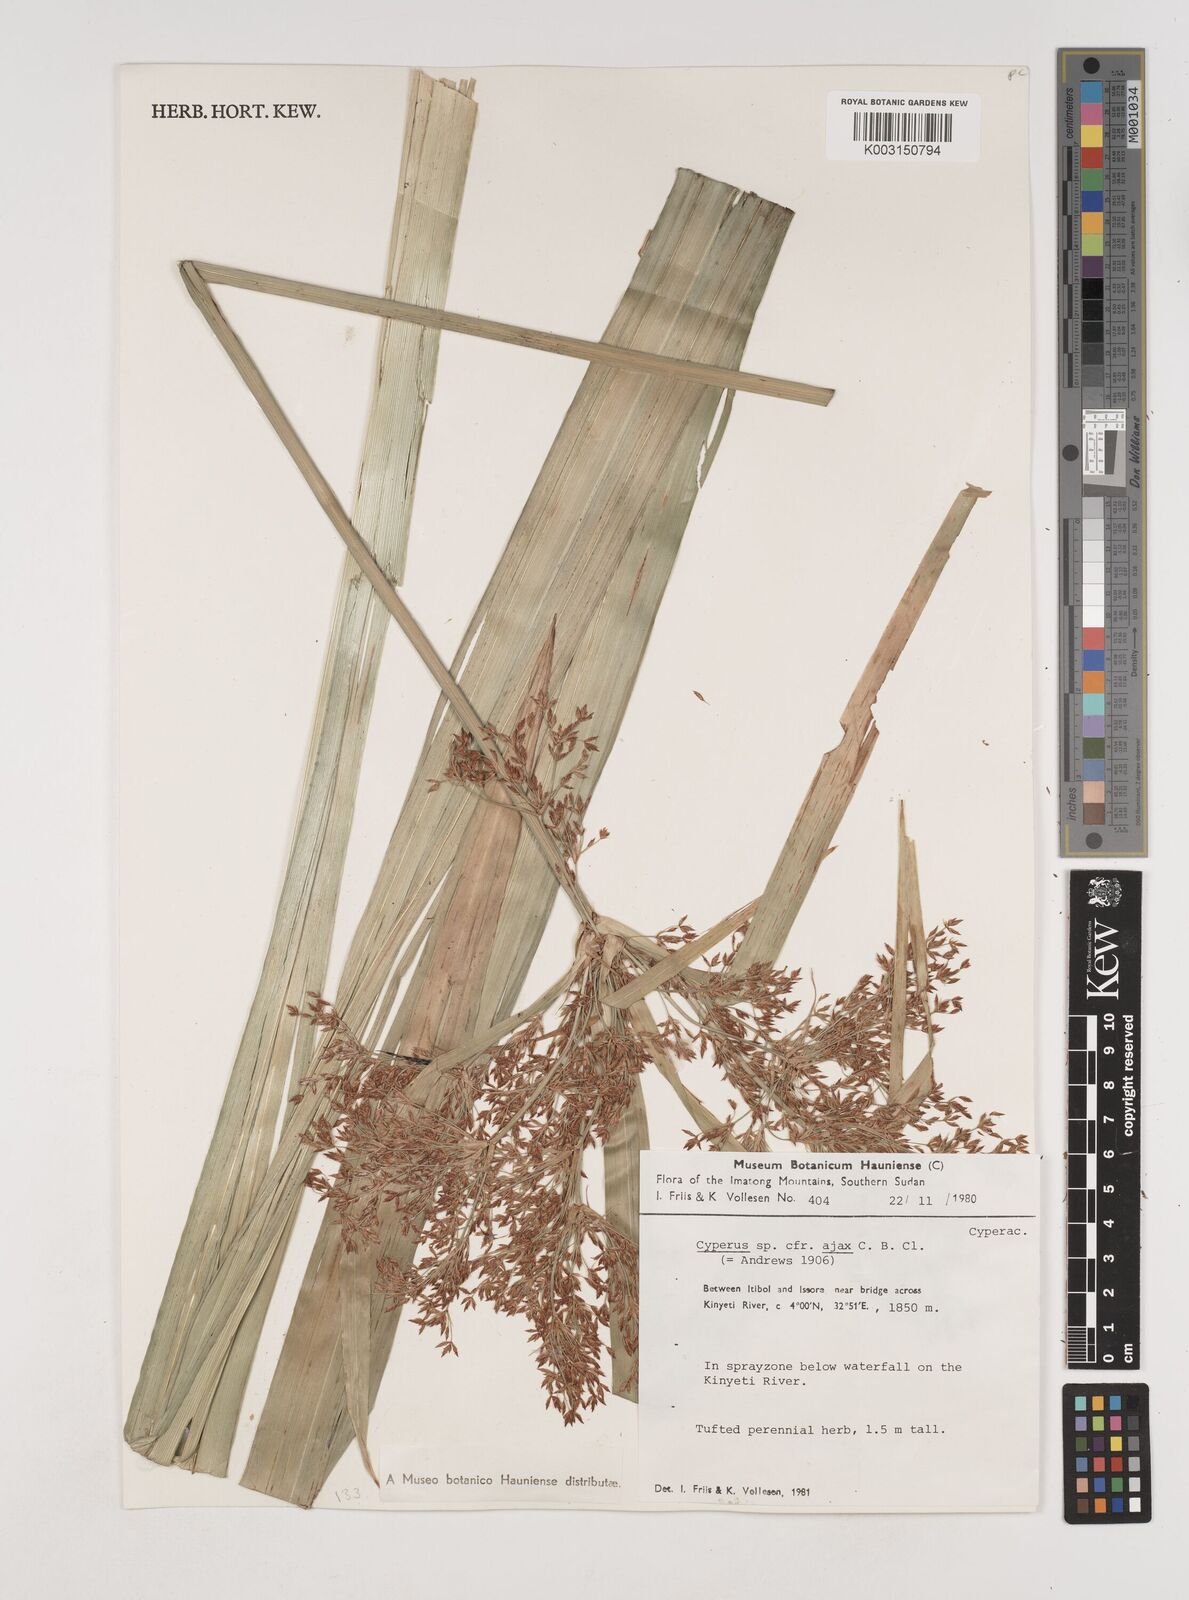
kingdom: Plantae
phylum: Tracheophyta
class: Liliopsida
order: Poales
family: Cyperaceae
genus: Cyperus
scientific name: Cyperus ajax
